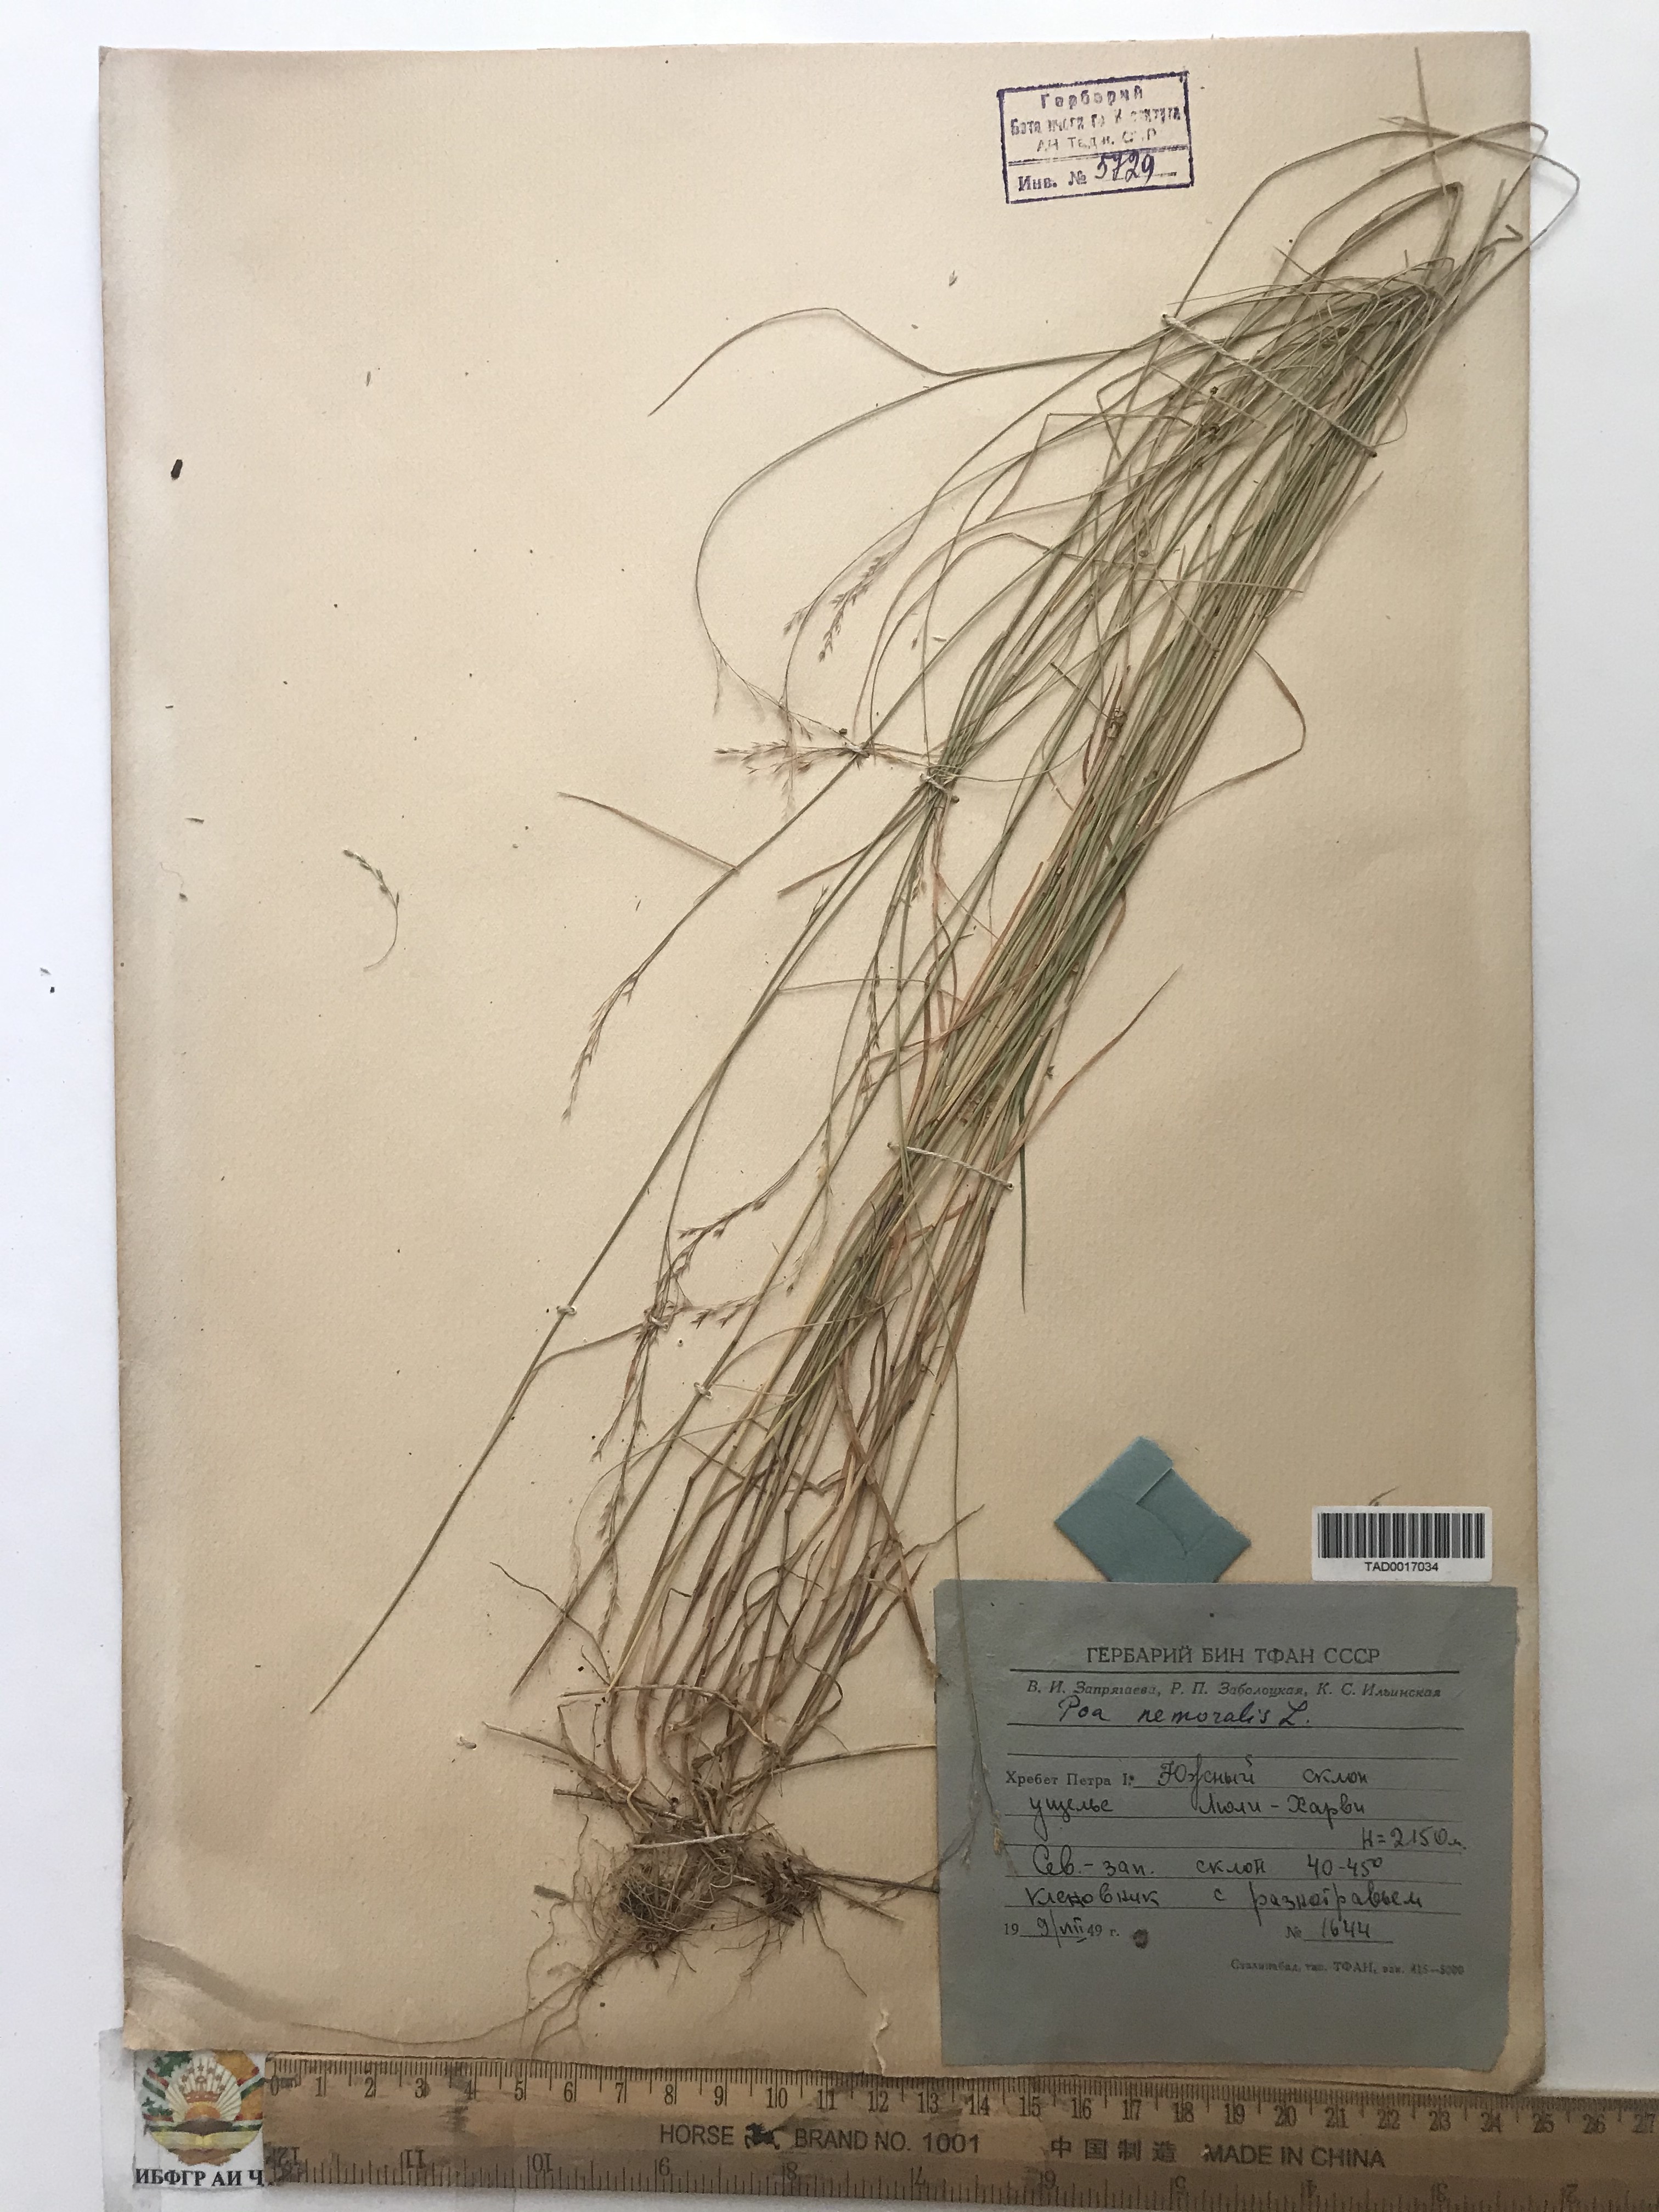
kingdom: Plantae
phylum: Tracheophyta
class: Liliopsida
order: Poales
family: Poaceae
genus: Poa
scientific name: Poa nemoralis
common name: Wood bluegrass
